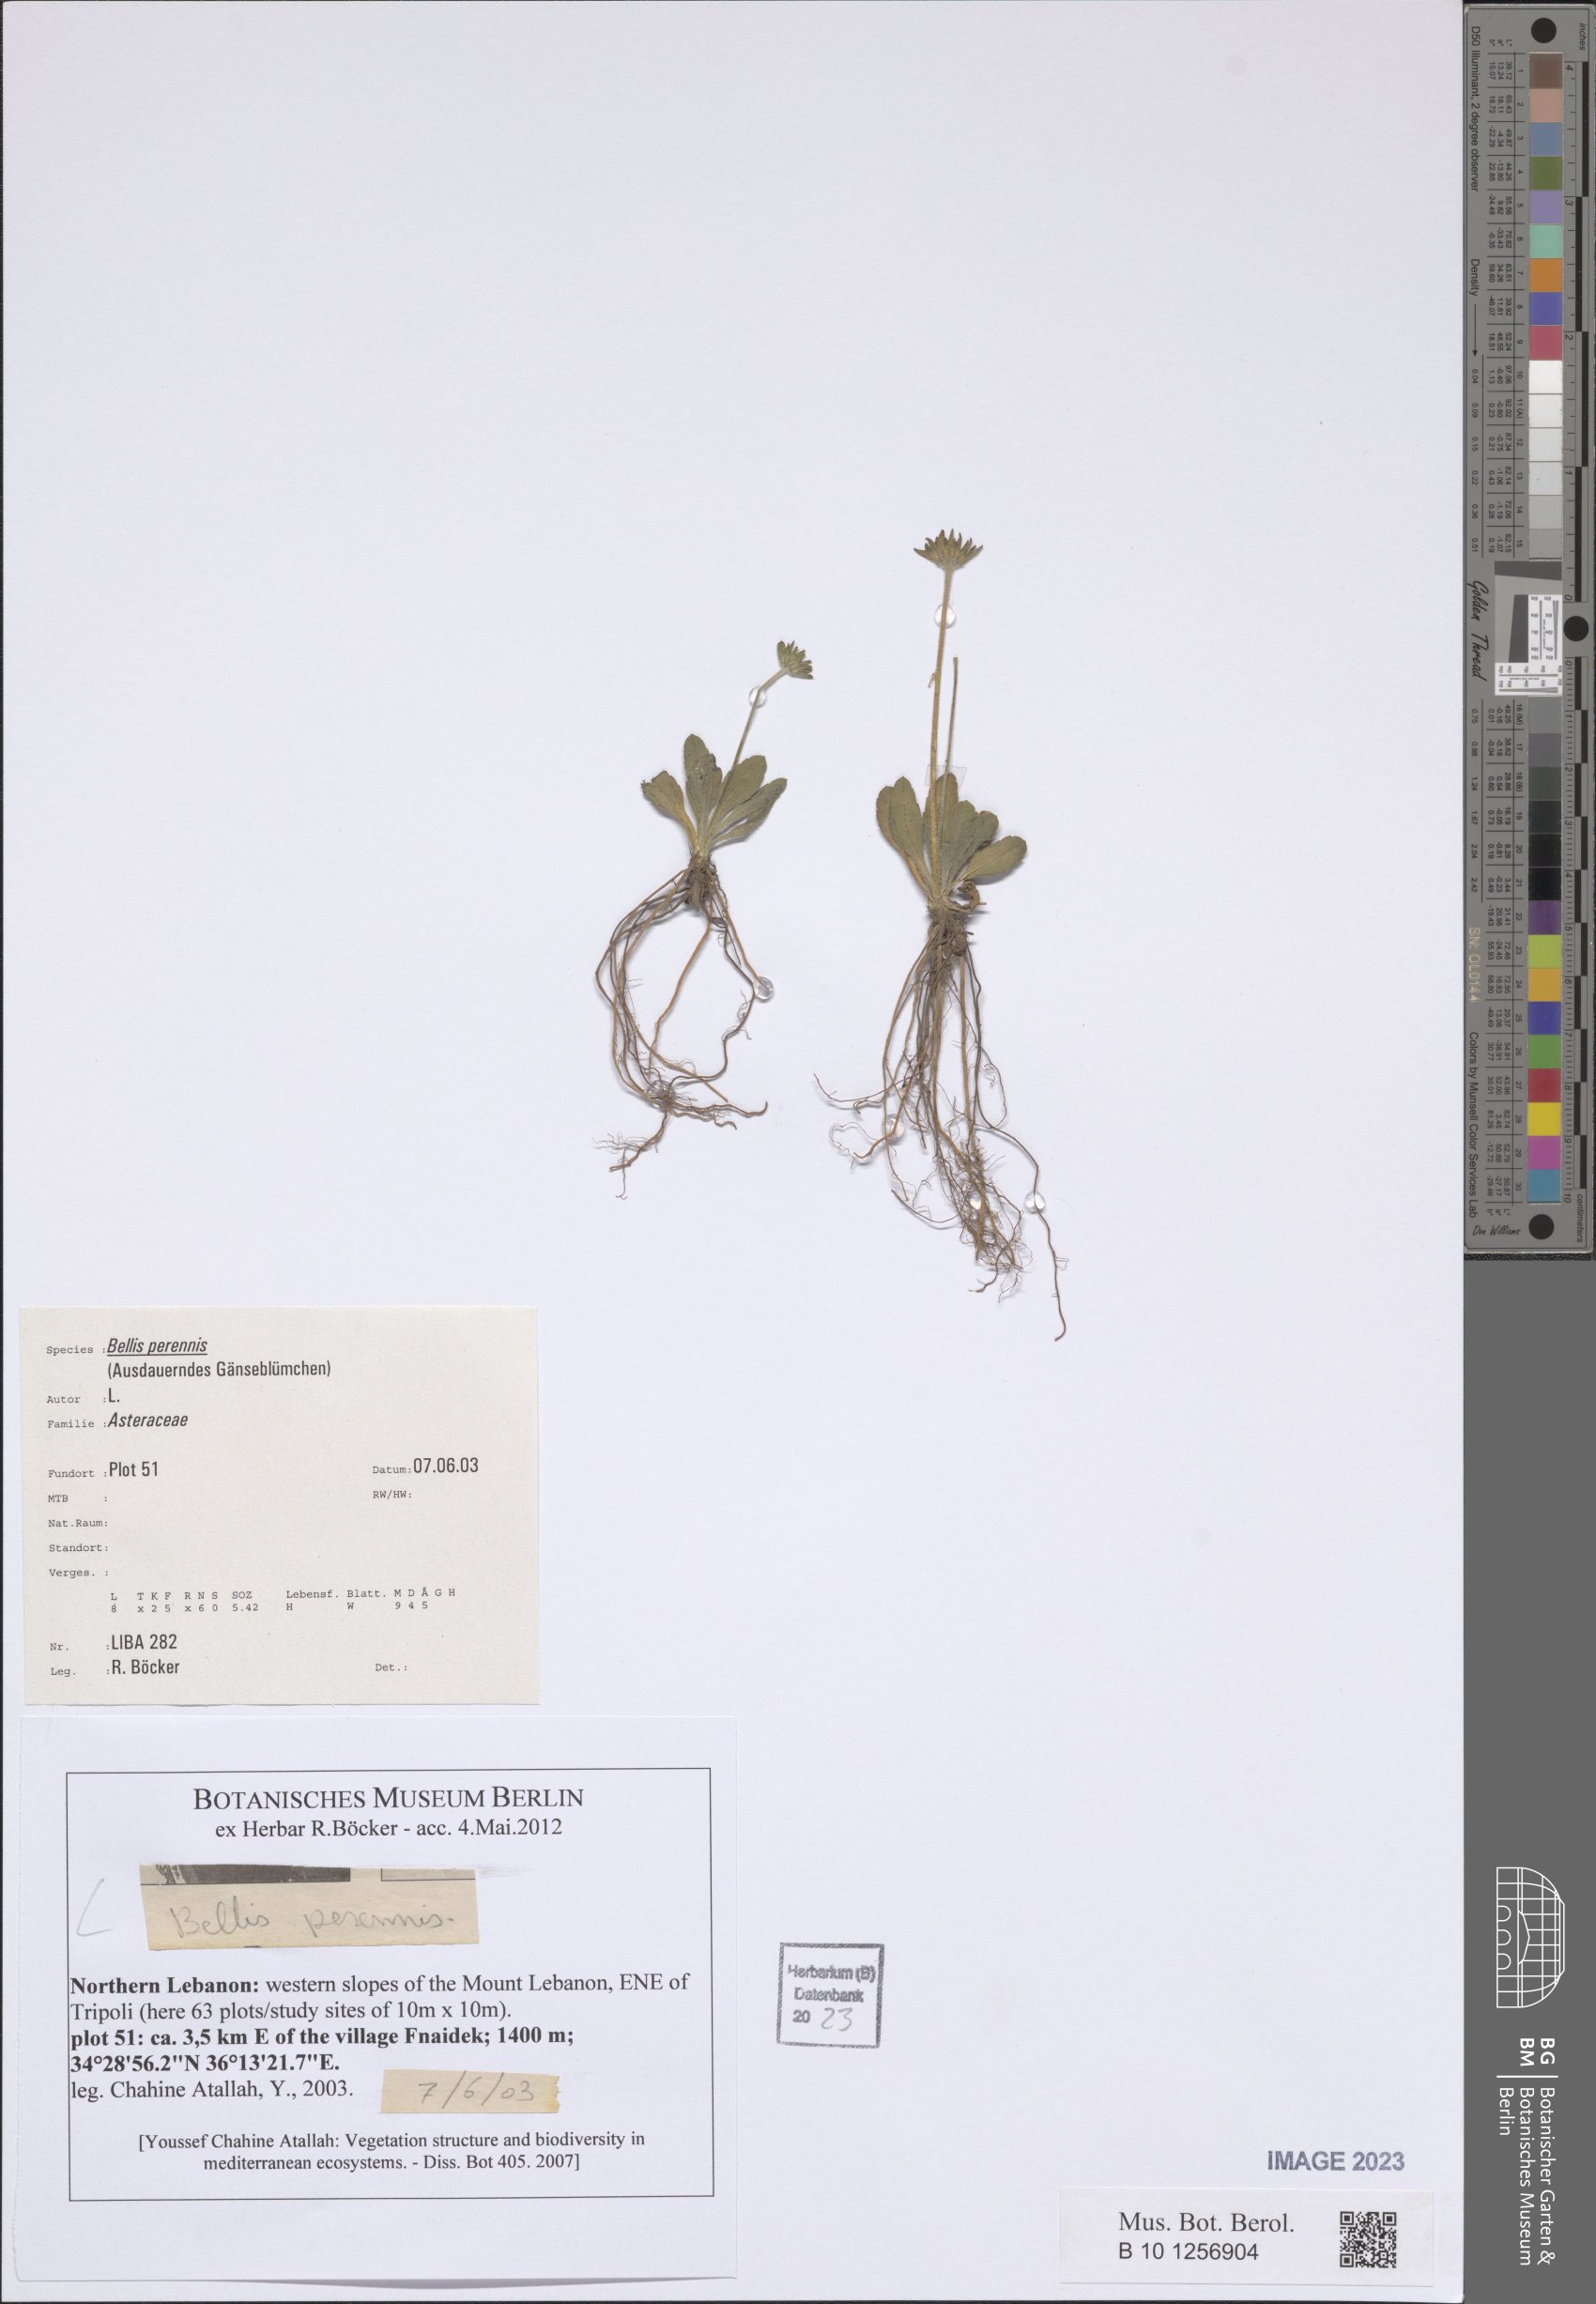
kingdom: Plantae
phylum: Tracheophyta
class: Magnoliopsida
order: Asterales
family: Asteraceae
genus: Bellis
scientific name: Bellis perennis
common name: Lawndaisy
